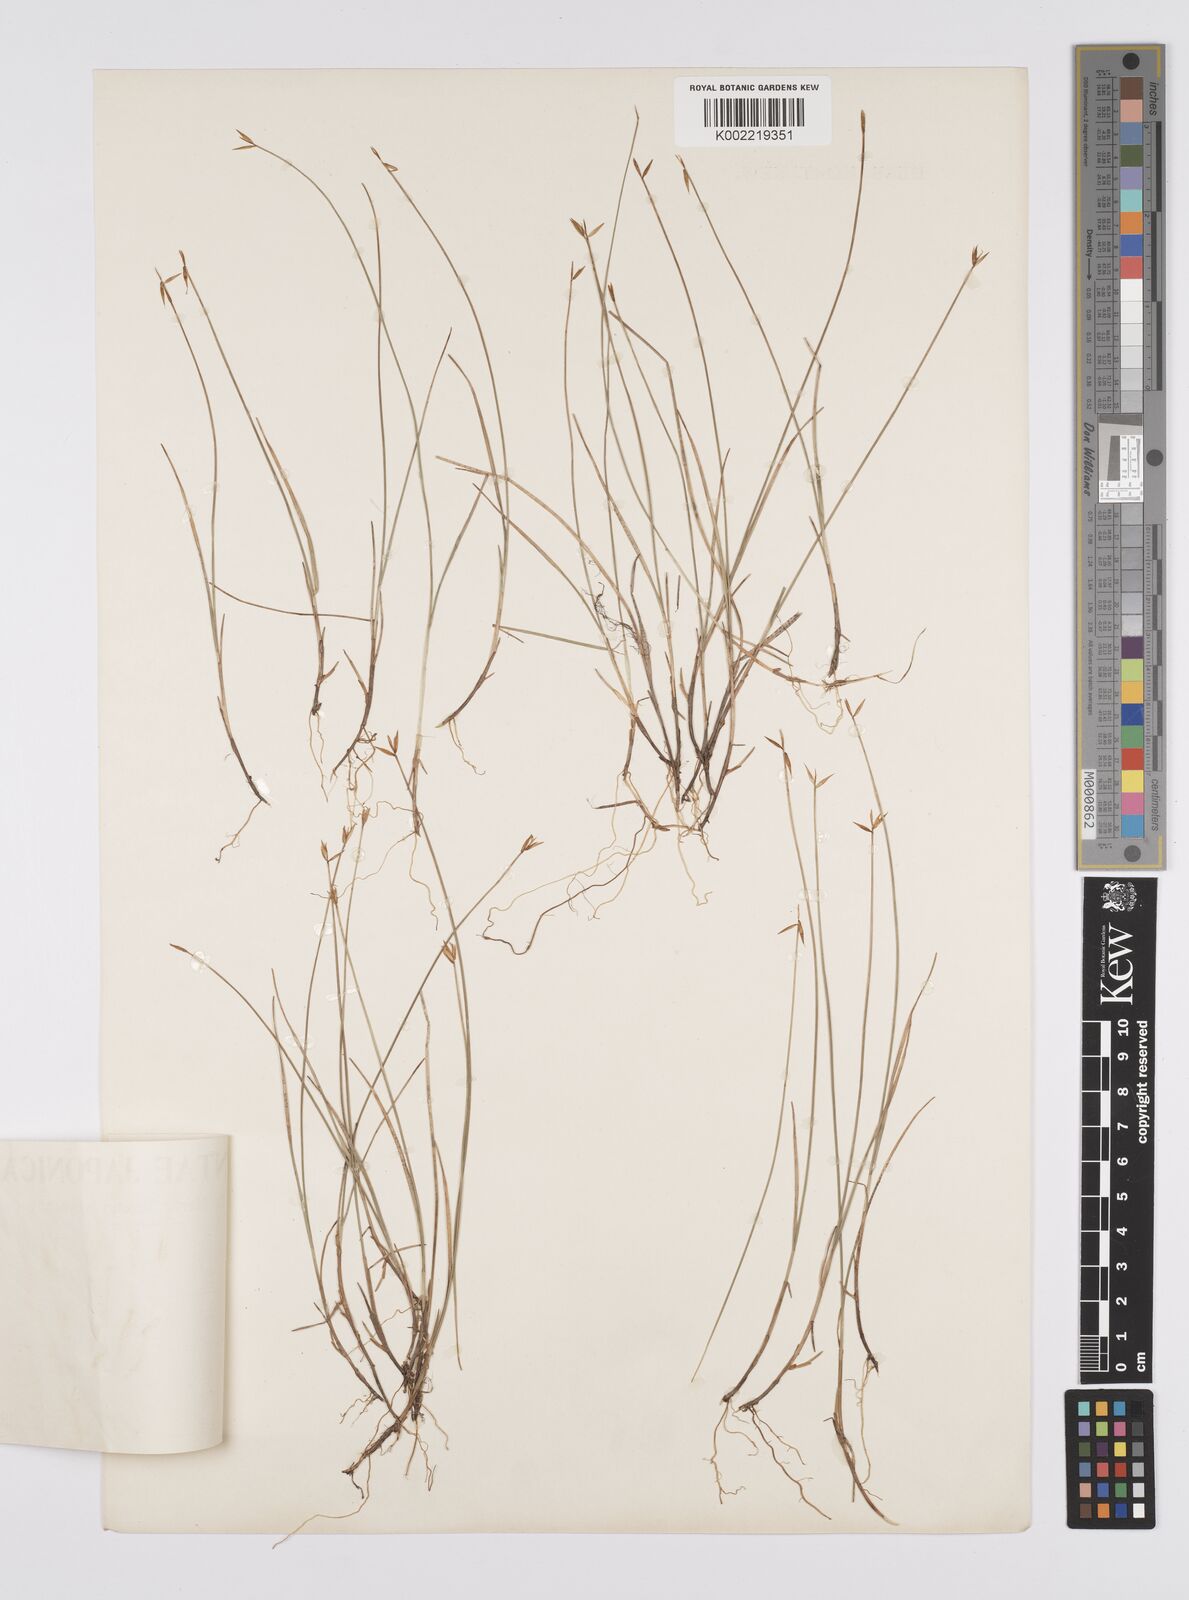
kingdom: Plantae
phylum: Tracheophyta
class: Liliopsida
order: Poales
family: Cyperaceae
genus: Carex
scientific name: Carex pauciflora
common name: Few-flowered sedge
